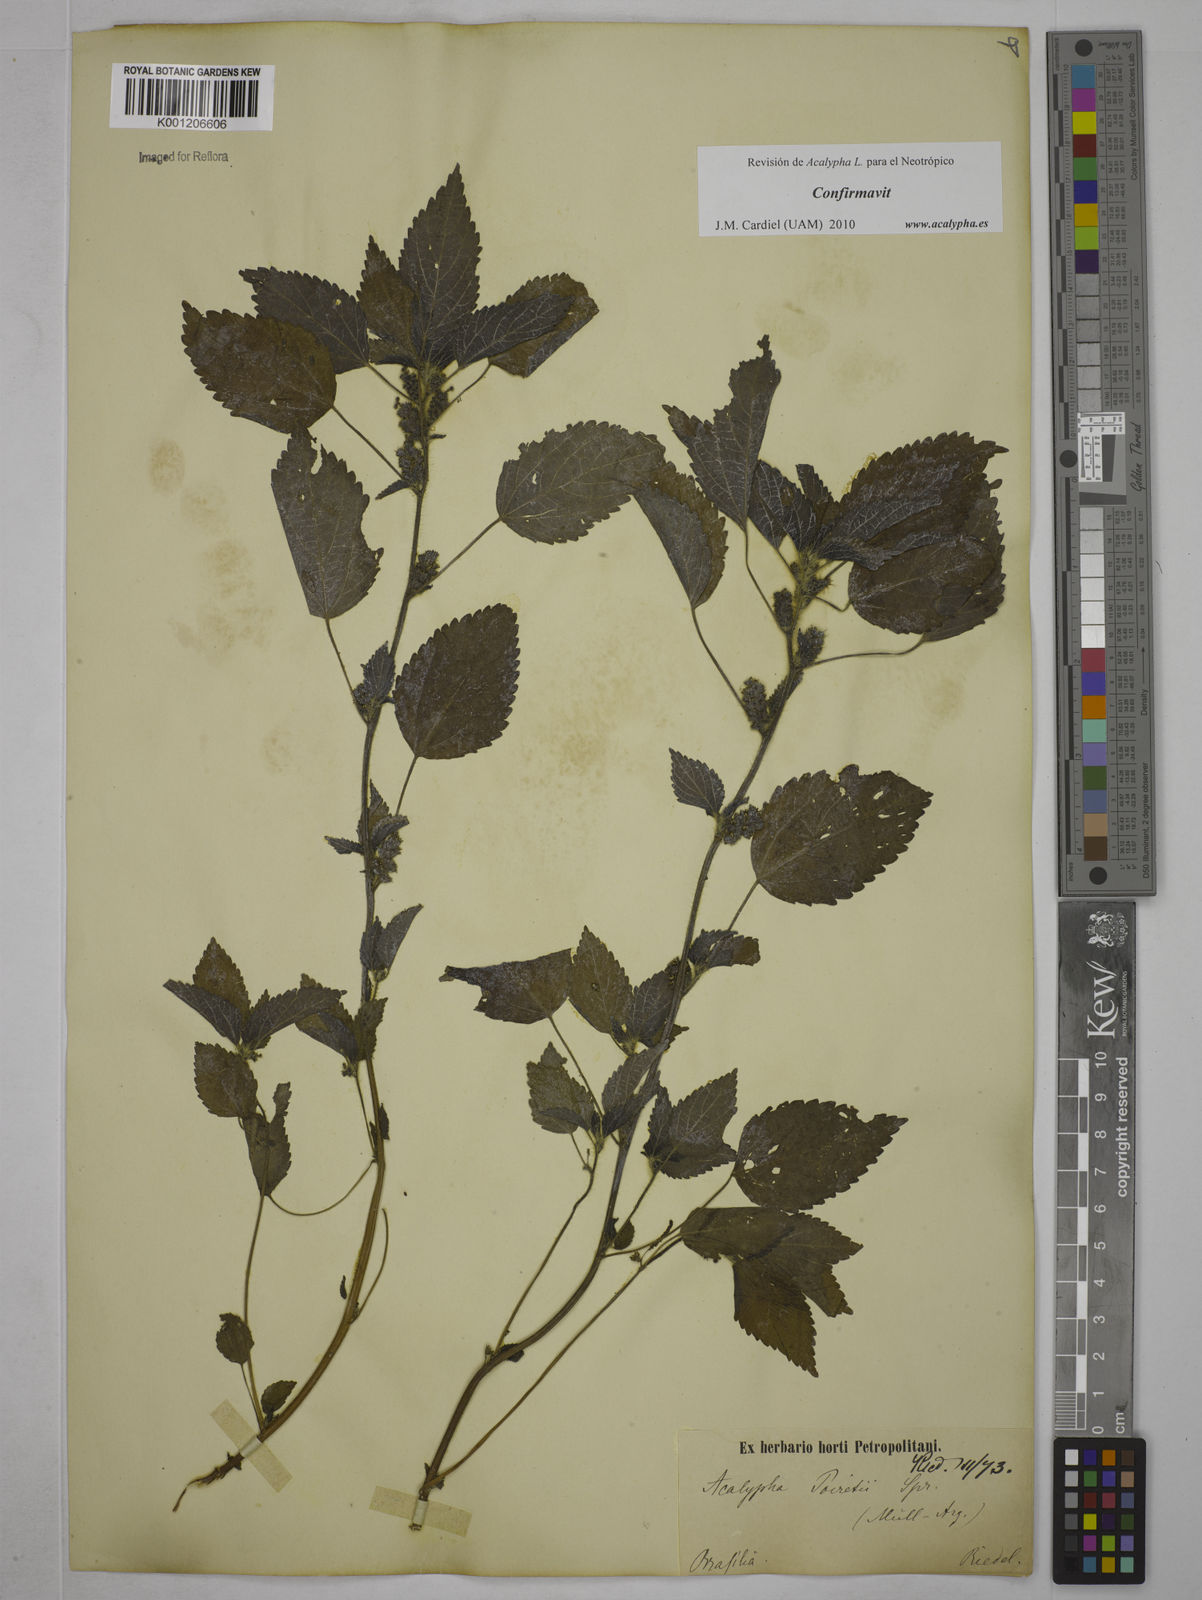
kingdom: Plantae
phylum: Tracheophyta
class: Magnoliopsida
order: Malpighiales
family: Euphorbiaceae
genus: Acalypha
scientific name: Acalypha poiretii
